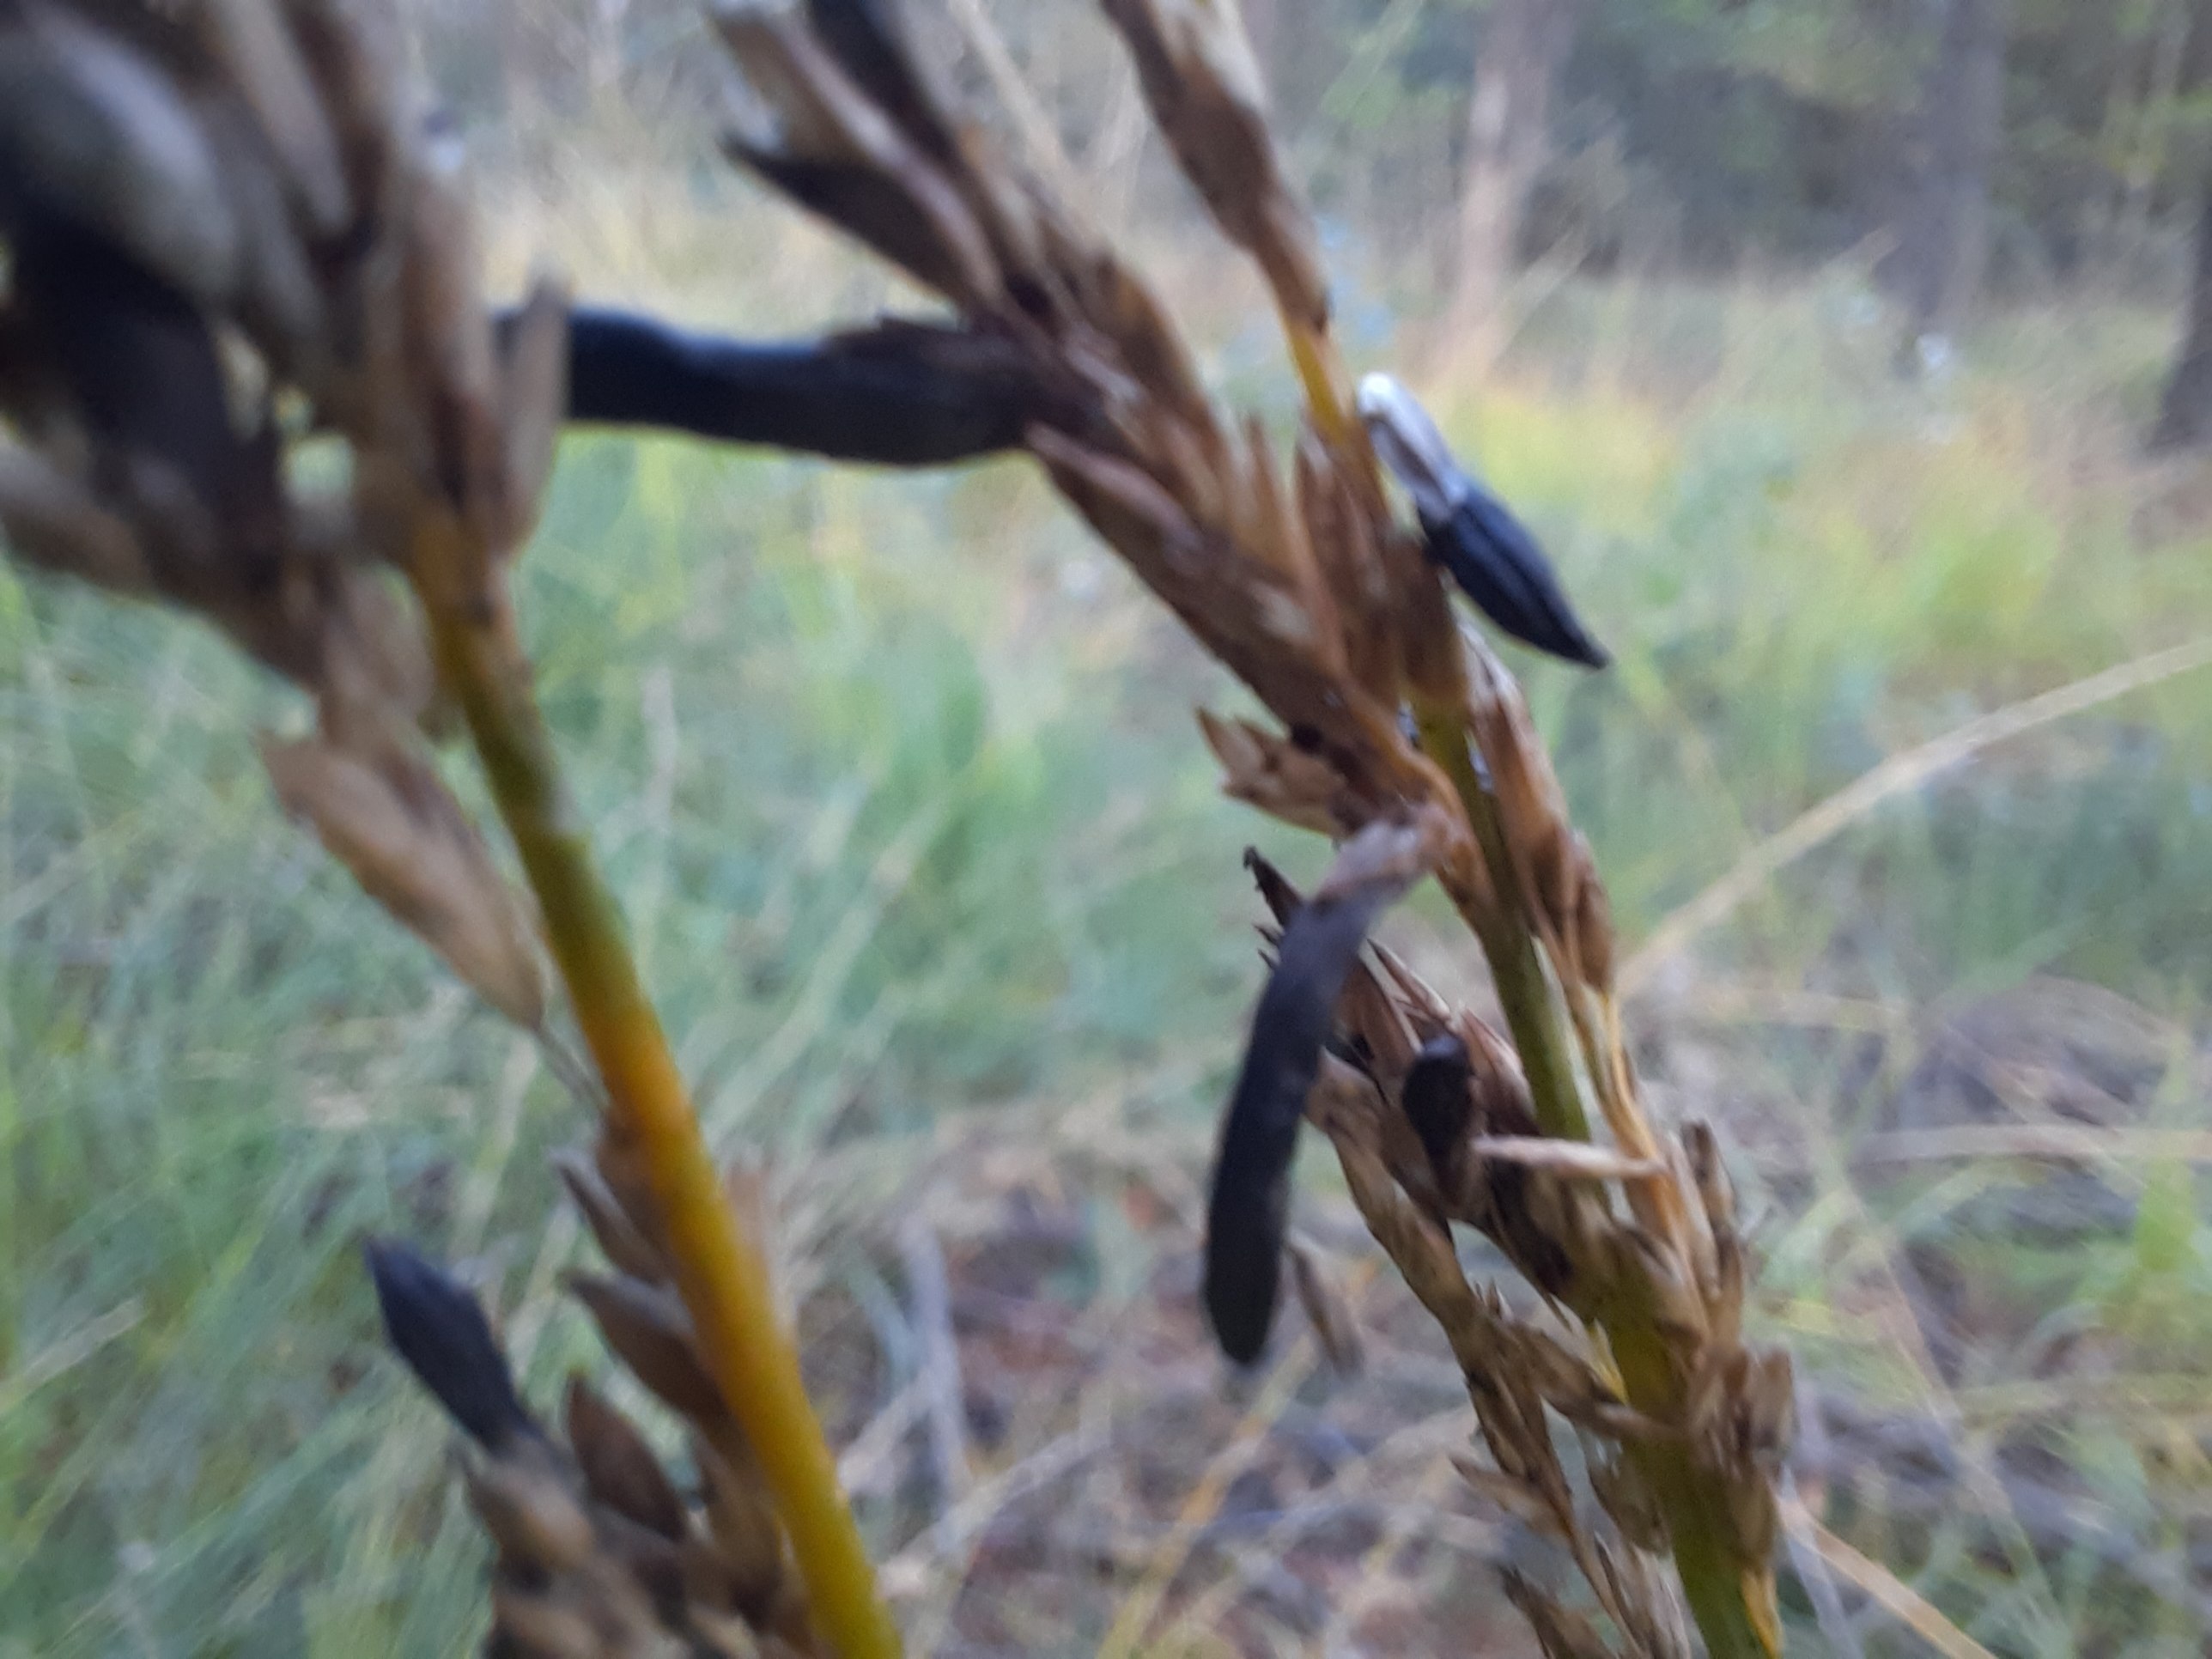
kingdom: Fungi
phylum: Ascomycota
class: Sordariomycetes
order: Hypocreales
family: Clavicipitaceae
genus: Claviceps
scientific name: Claviceps purpurea
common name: almindelig meldrøjer
